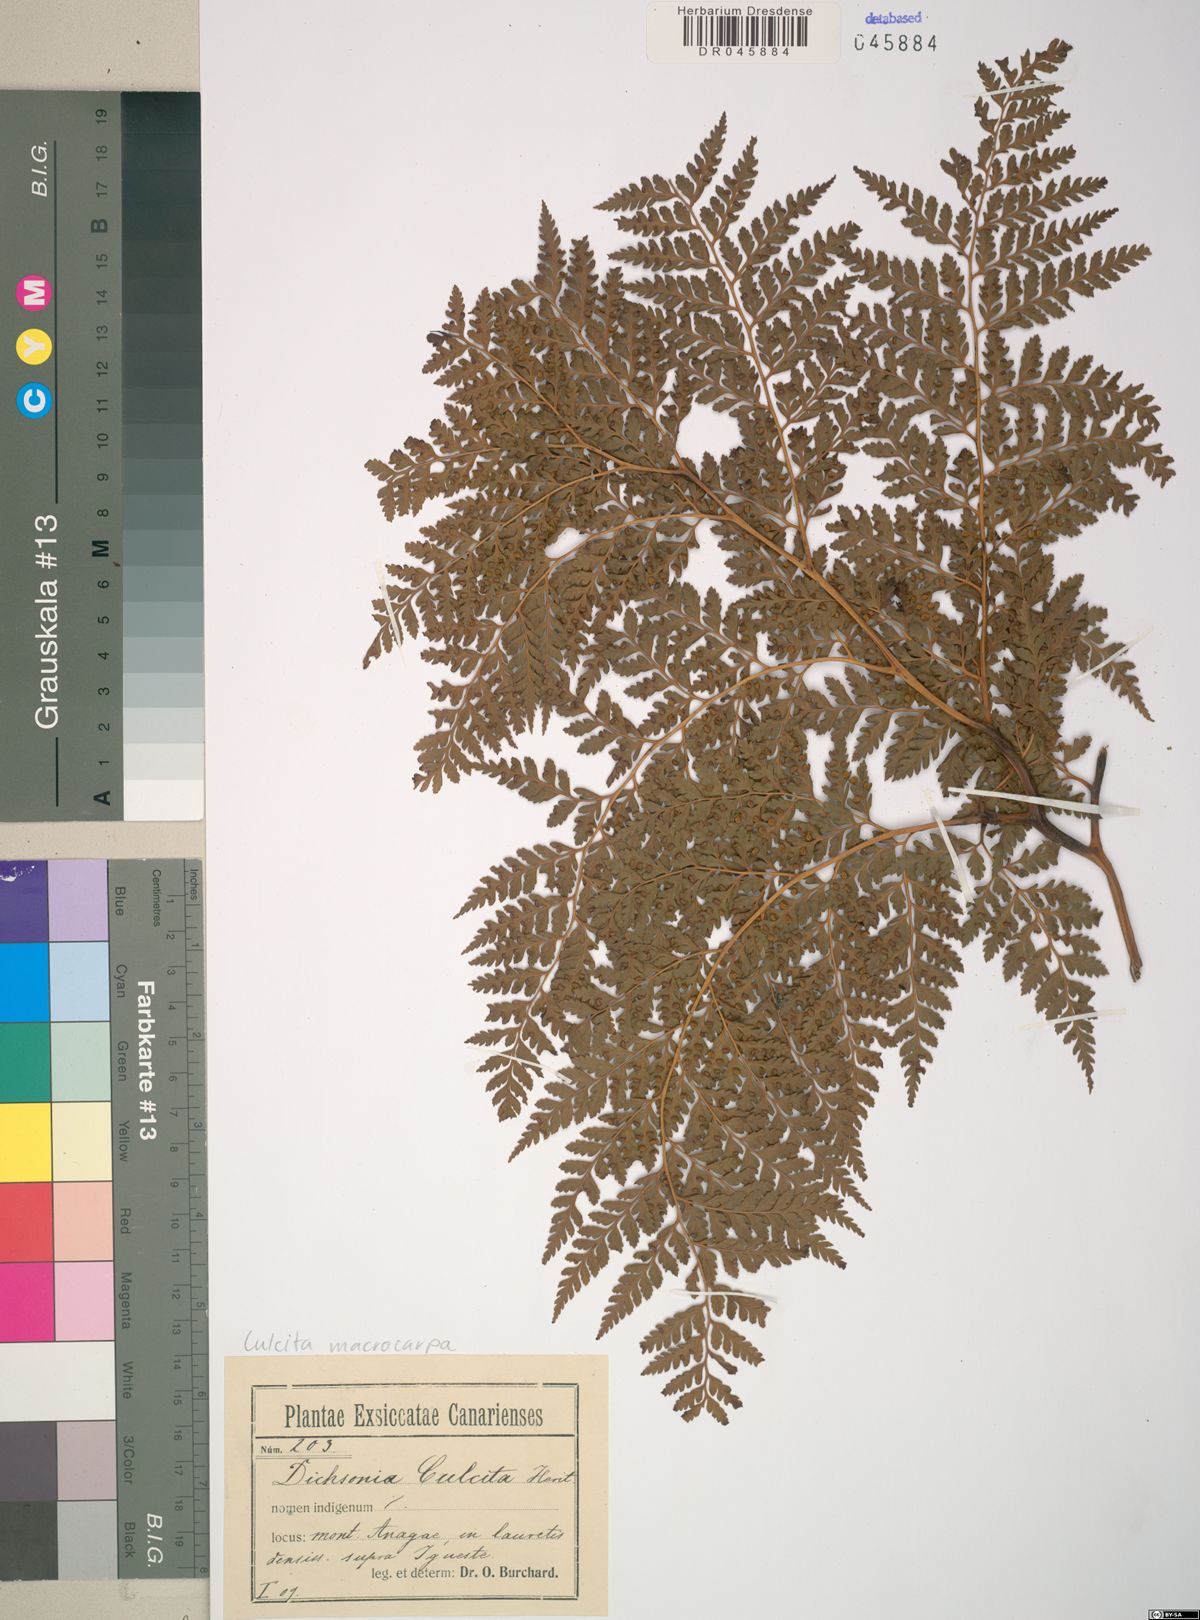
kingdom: Plantae
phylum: Tracheophyta
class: Polypodiopsida
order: Cyatheales
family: Culcitaceae
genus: Culcita
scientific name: Culcita macrocarpa
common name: Woolly tree fern
